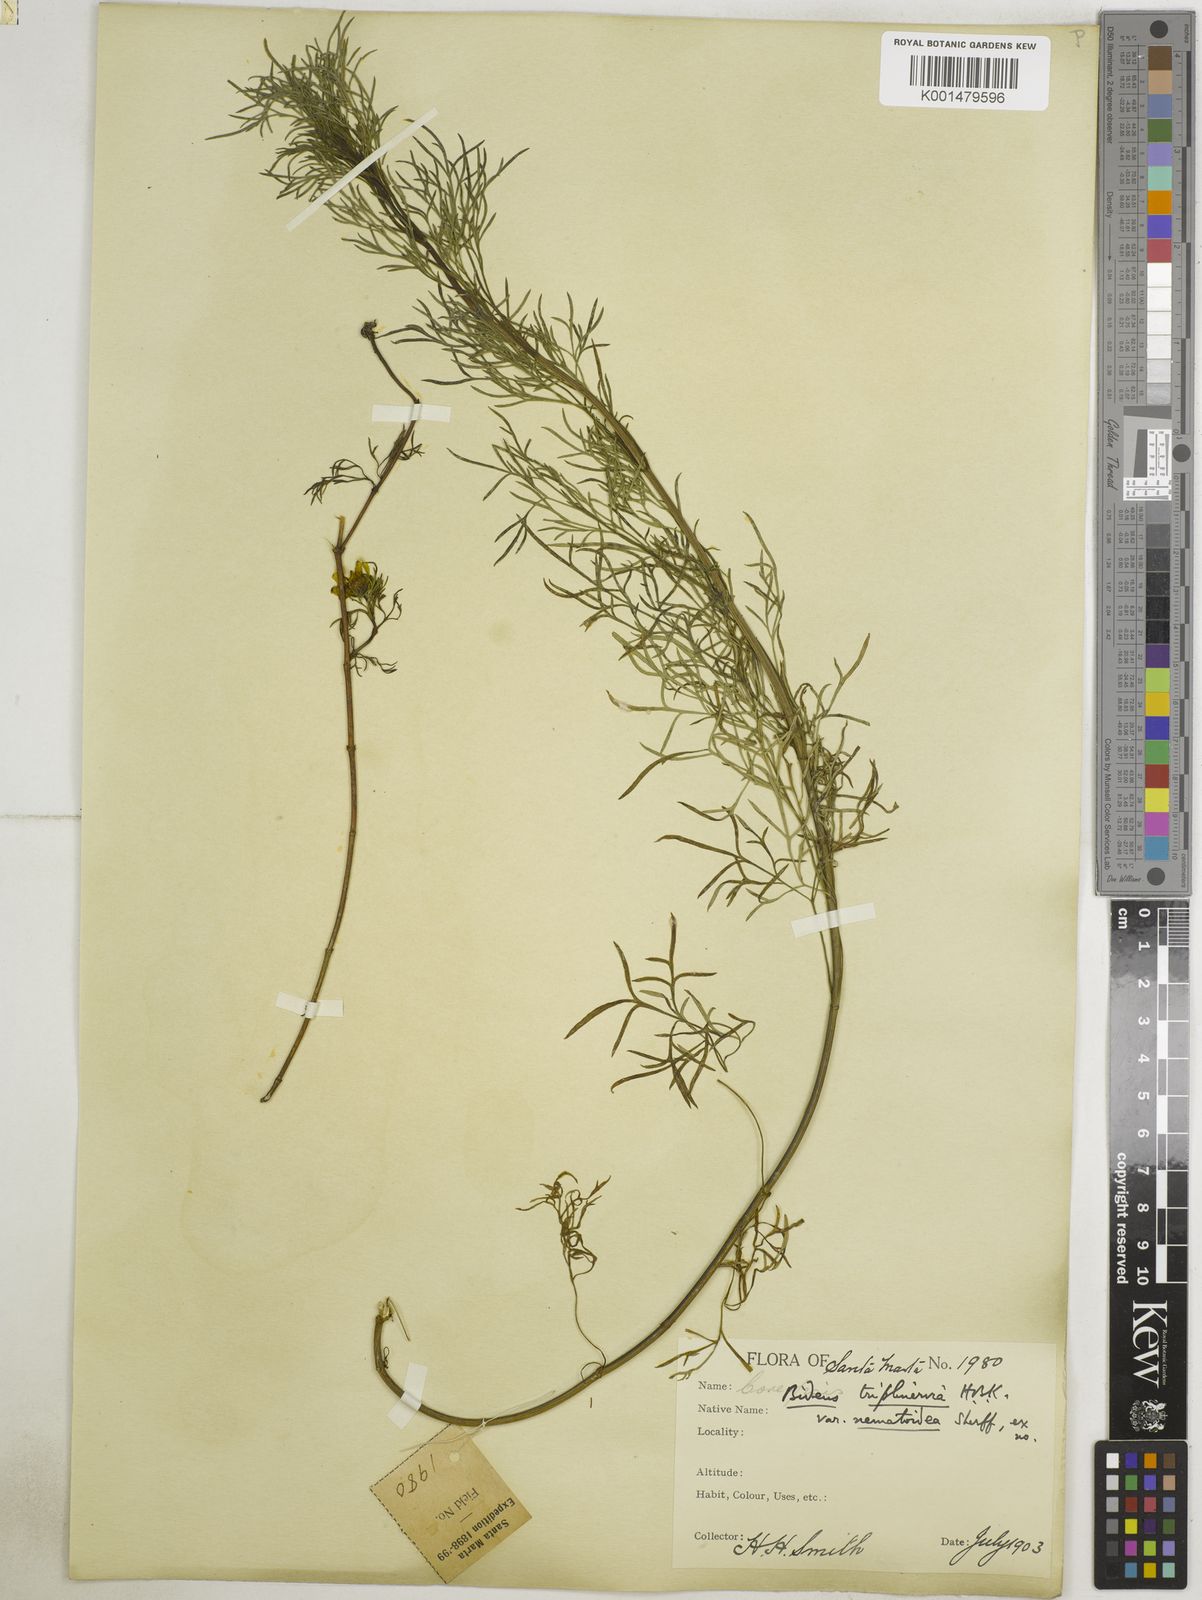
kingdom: Plantae
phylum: Tracheophyta
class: Magnoliopsida
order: Asterales
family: Asteraceae
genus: Bidens
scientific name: Bidens triplinervia
